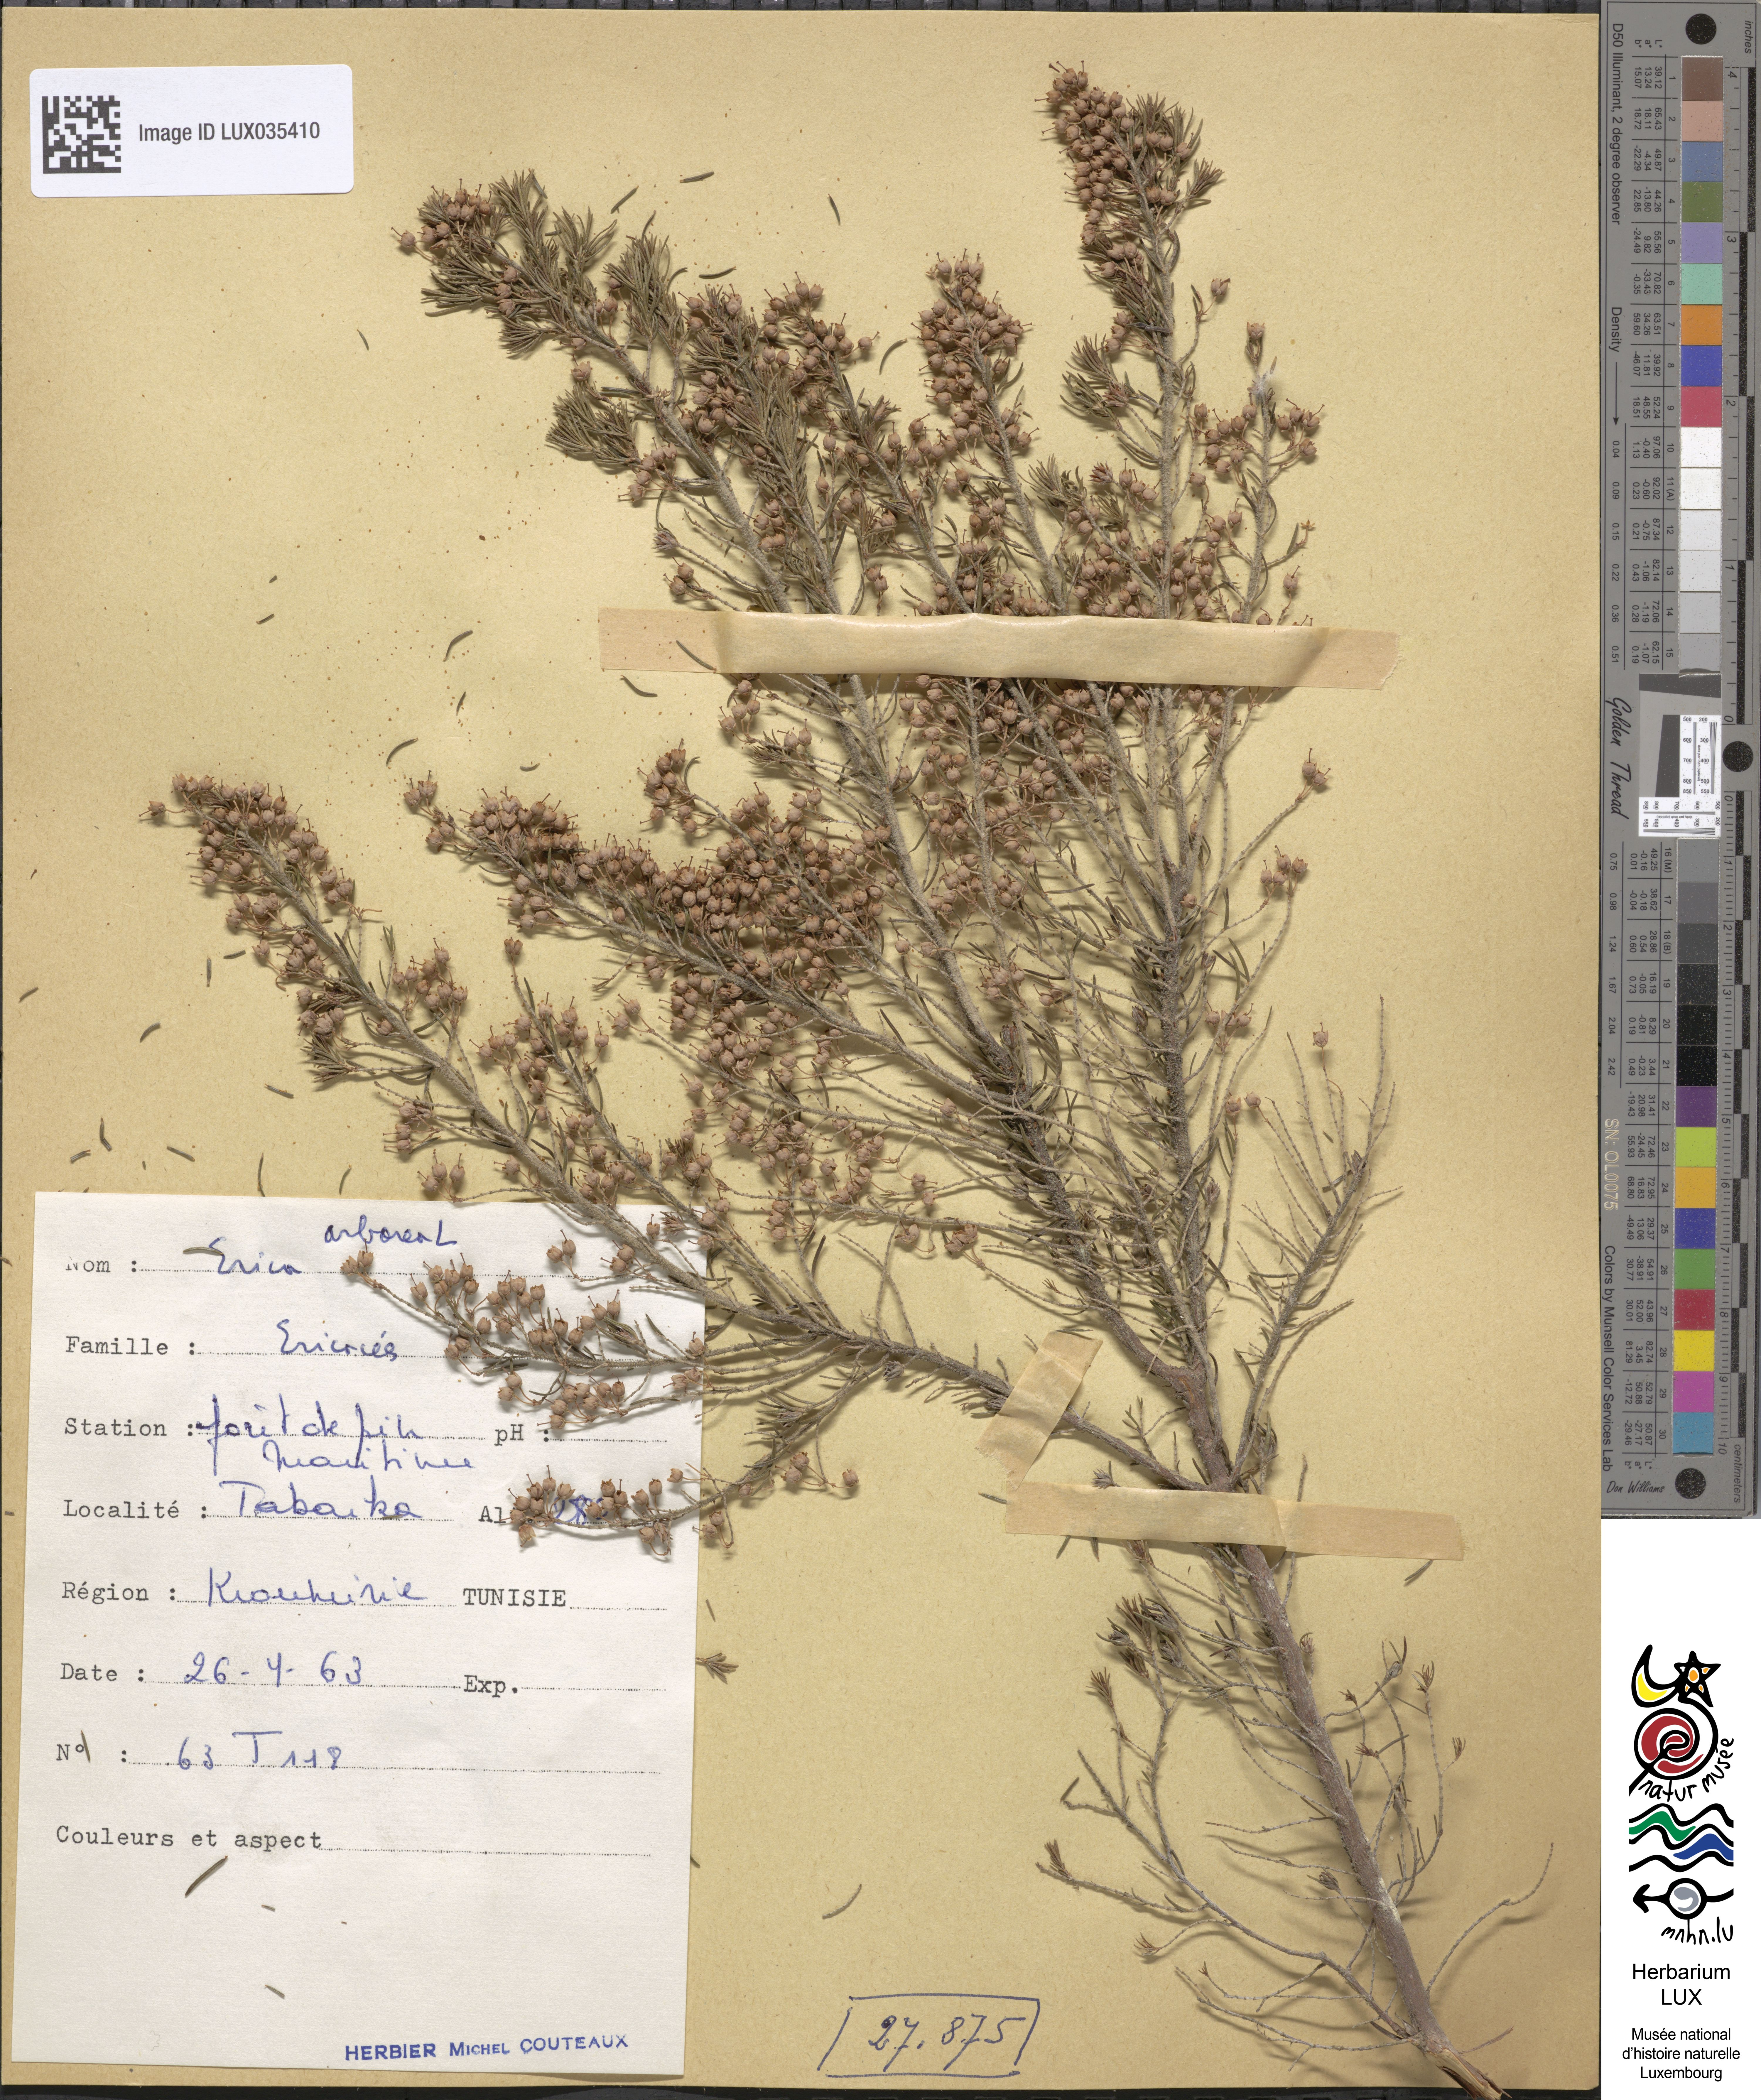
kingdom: Plantae
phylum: Tracheophyta
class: Magnoliopsida
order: Ericales
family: Ericaceae
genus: Erica
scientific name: Erica arborea
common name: Tree heath
